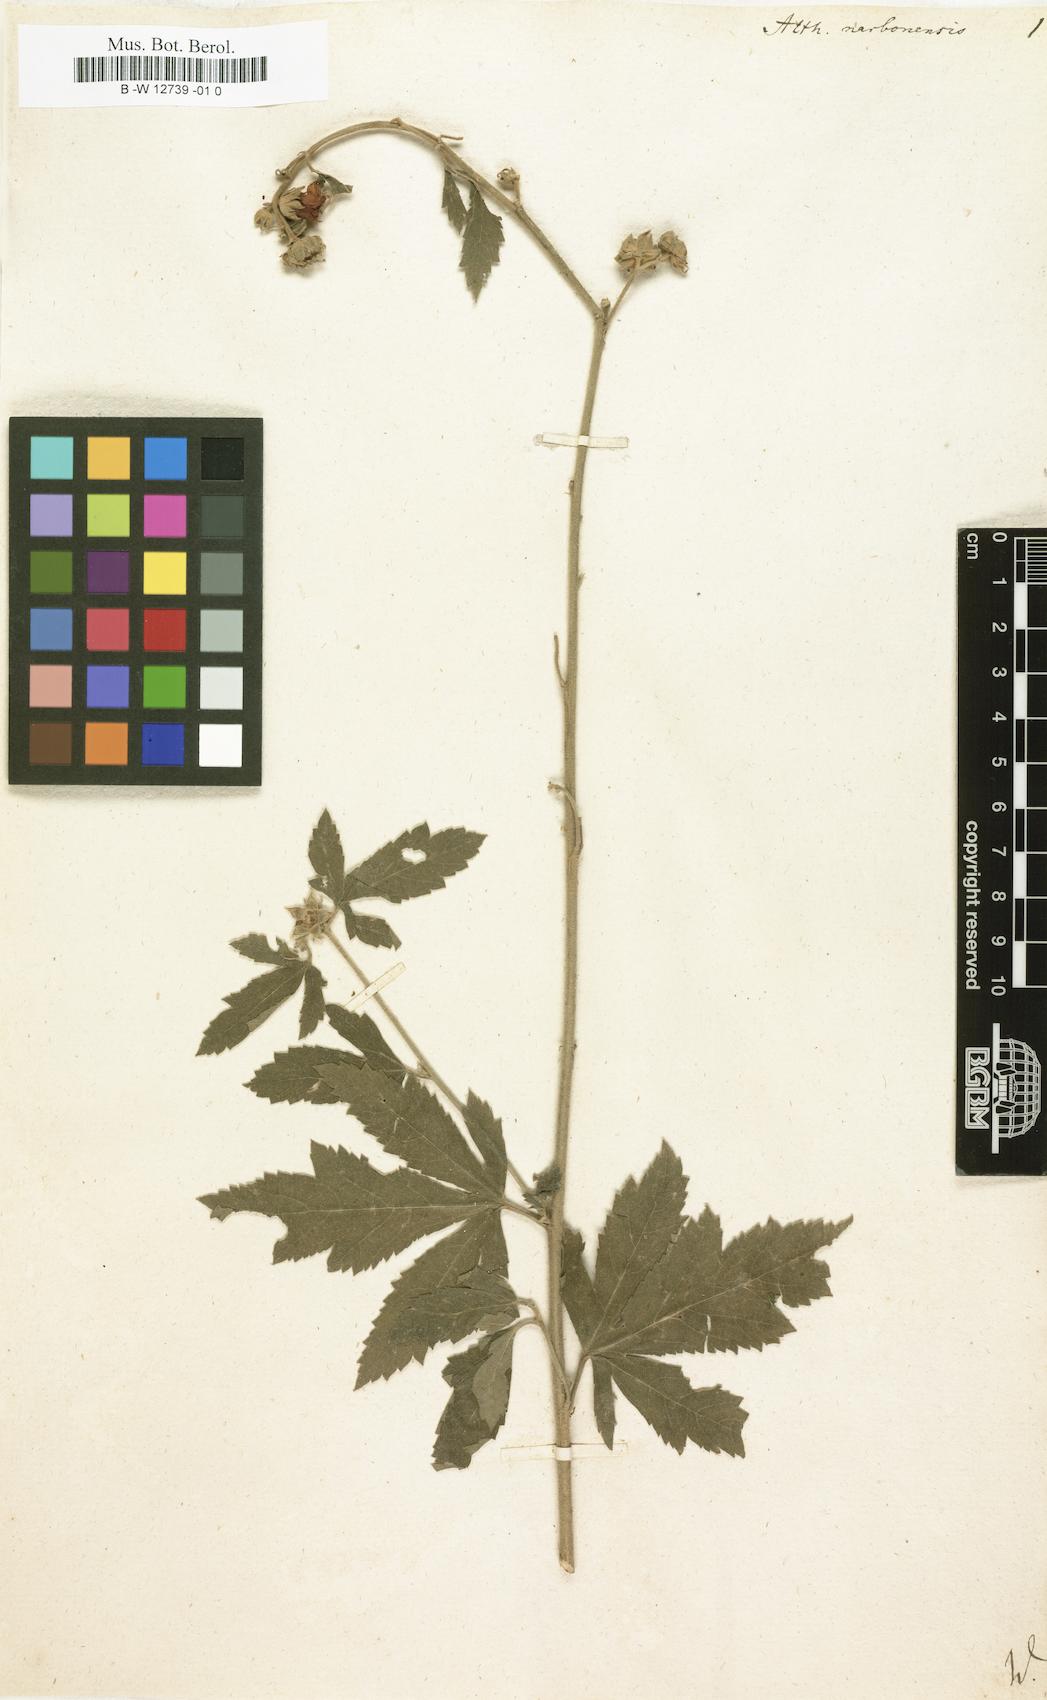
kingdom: Plantae
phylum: Tracheophyta
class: Magnoliopsida
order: Malvales
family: Malvaceae
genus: Althaea
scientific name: Althaea cannabina
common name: Palm-leaf marshmallow
